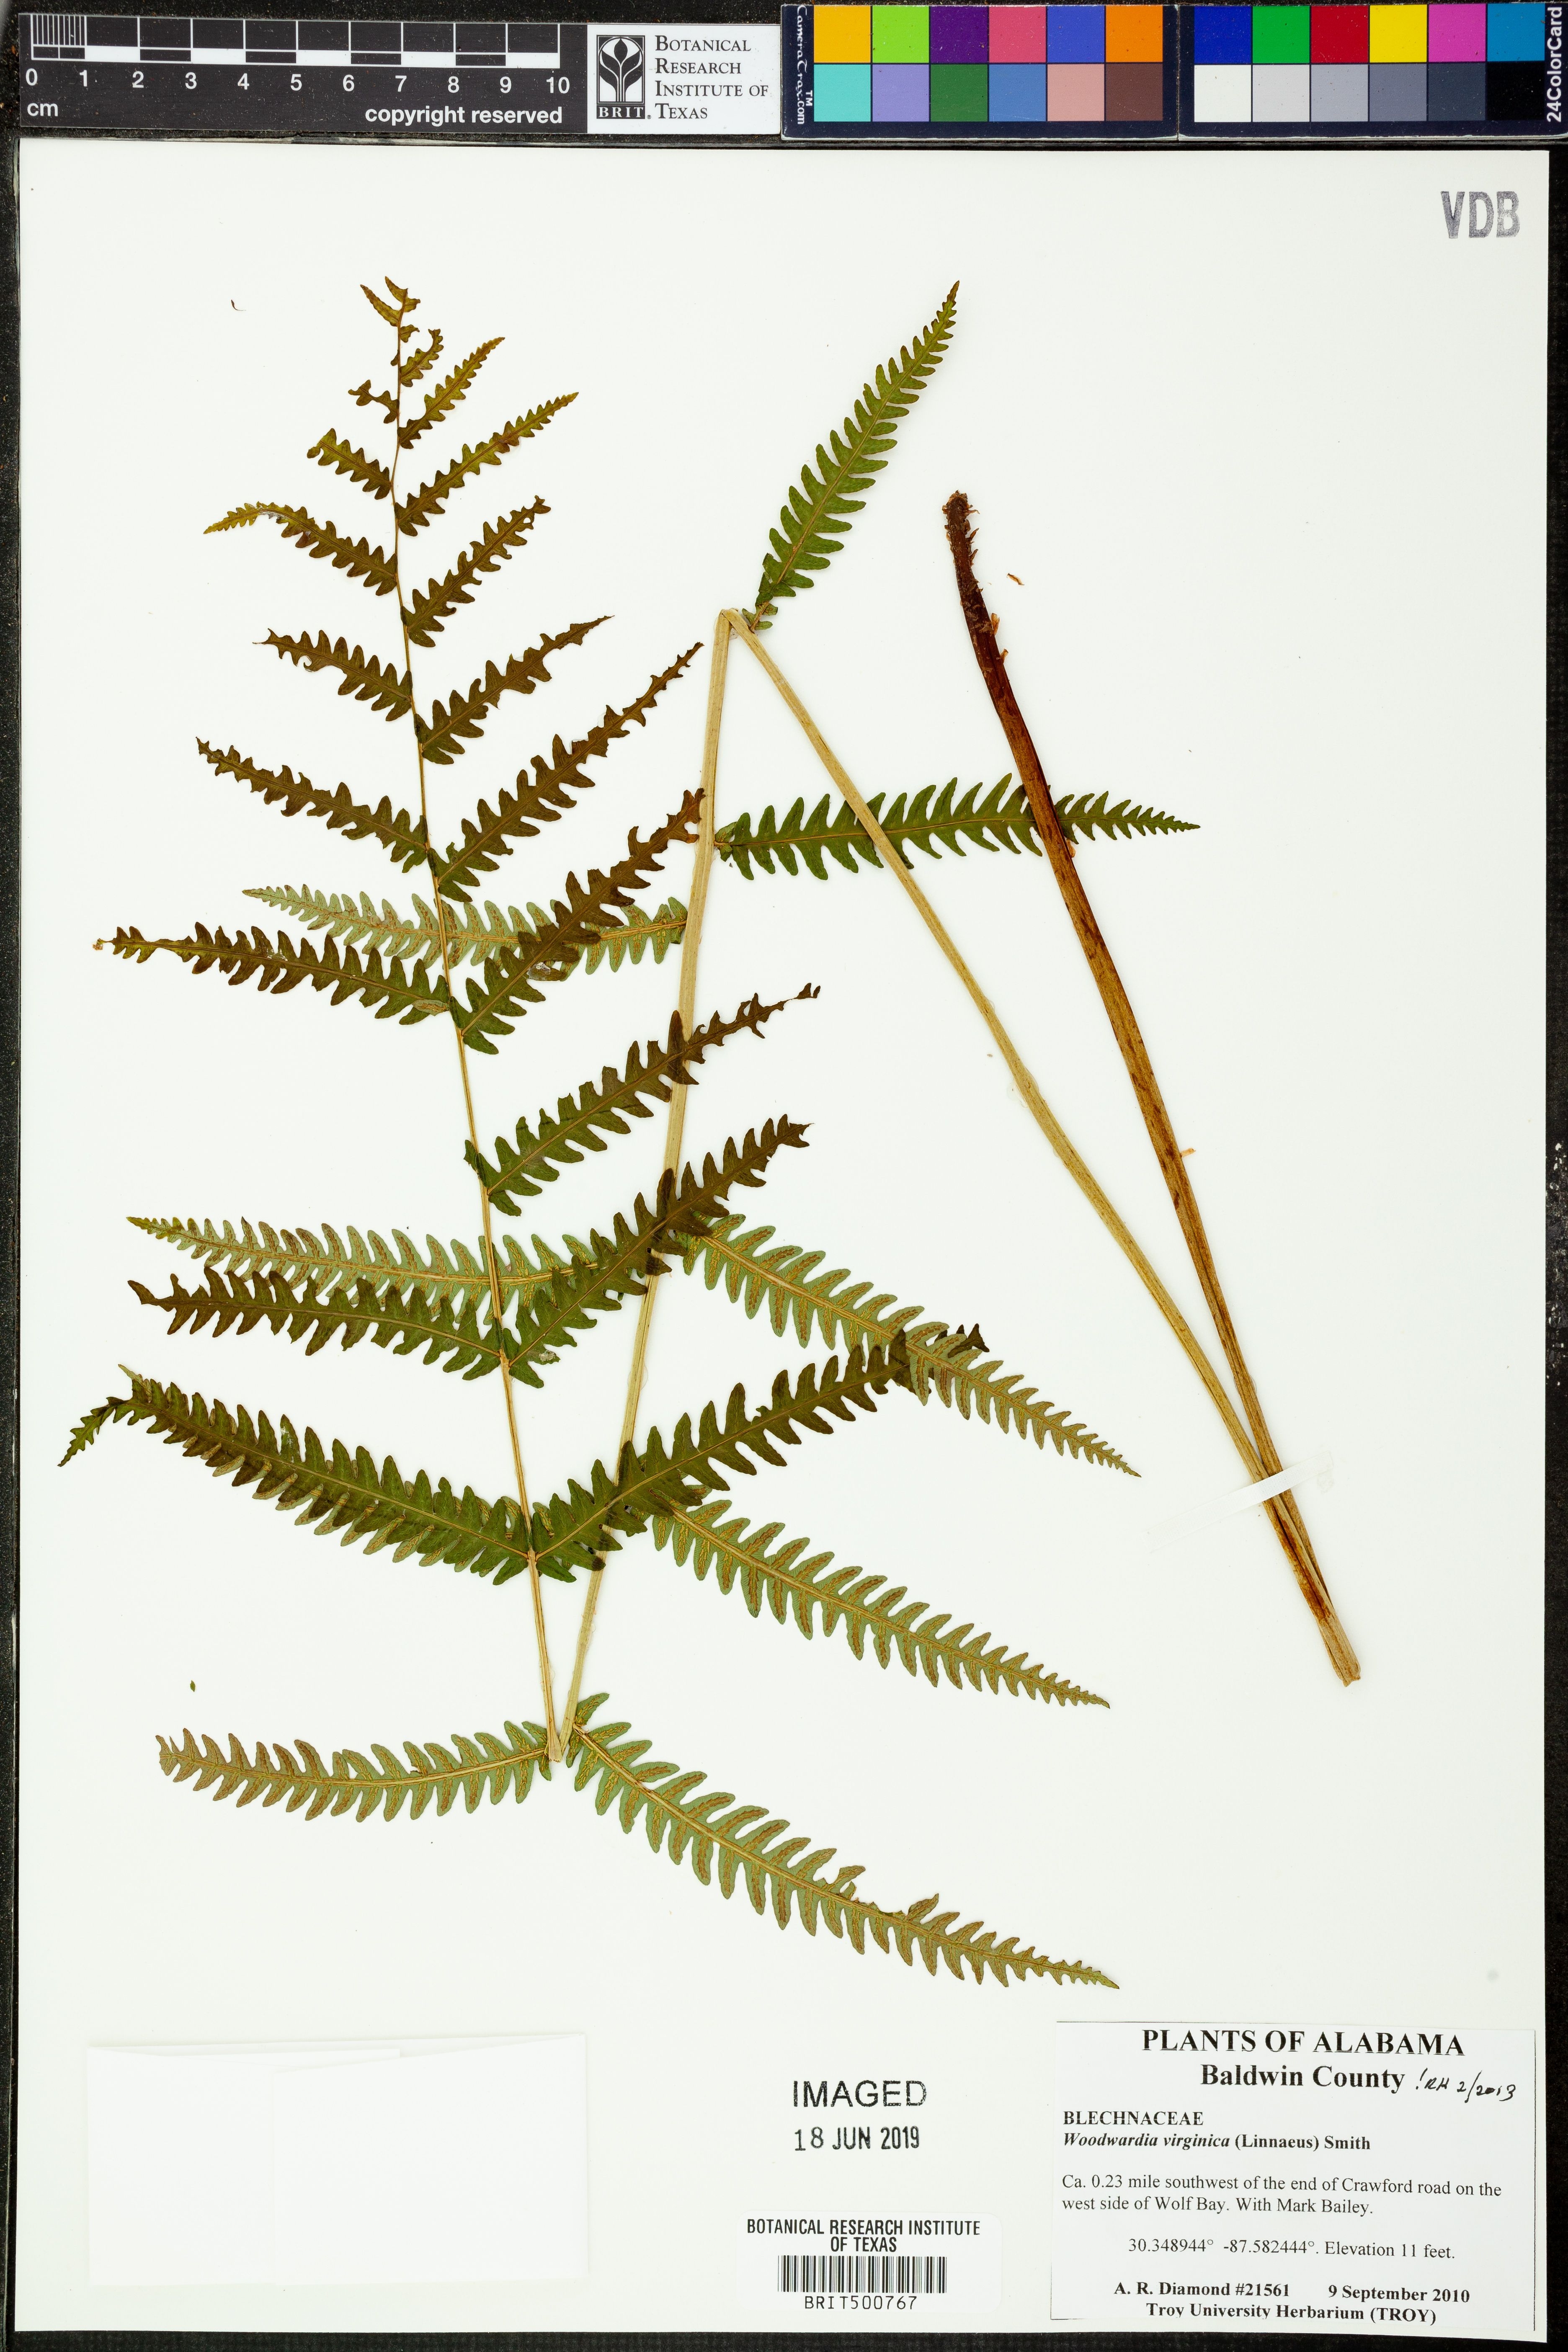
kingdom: Plantae
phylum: Tracheophyta
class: Polypodiopsida
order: Polypodiales
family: Blechnaceae
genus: Anchistea
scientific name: Anchistea virginica
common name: Virginia chain fern
